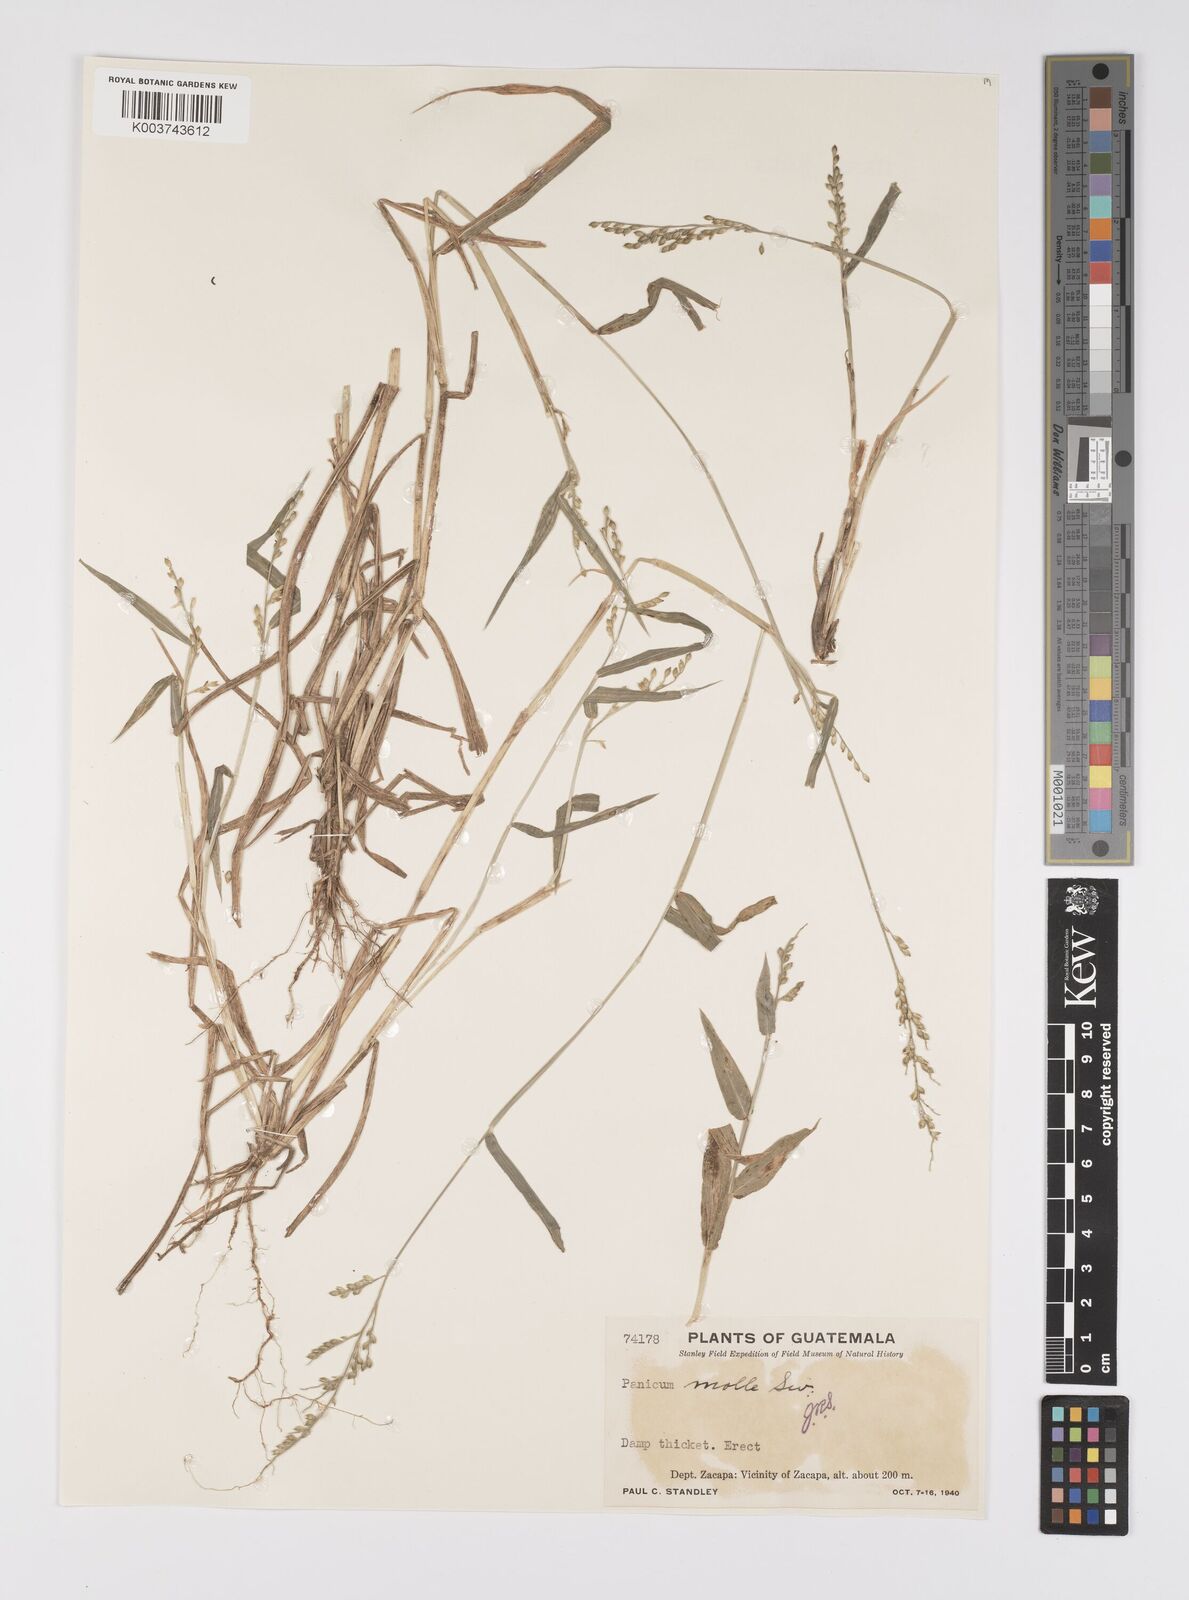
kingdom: Plantae
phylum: Tracheophyta
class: Liliopsida
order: Poales
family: Poaceae
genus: Urochloa
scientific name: Urochloa mollis
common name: Grass
